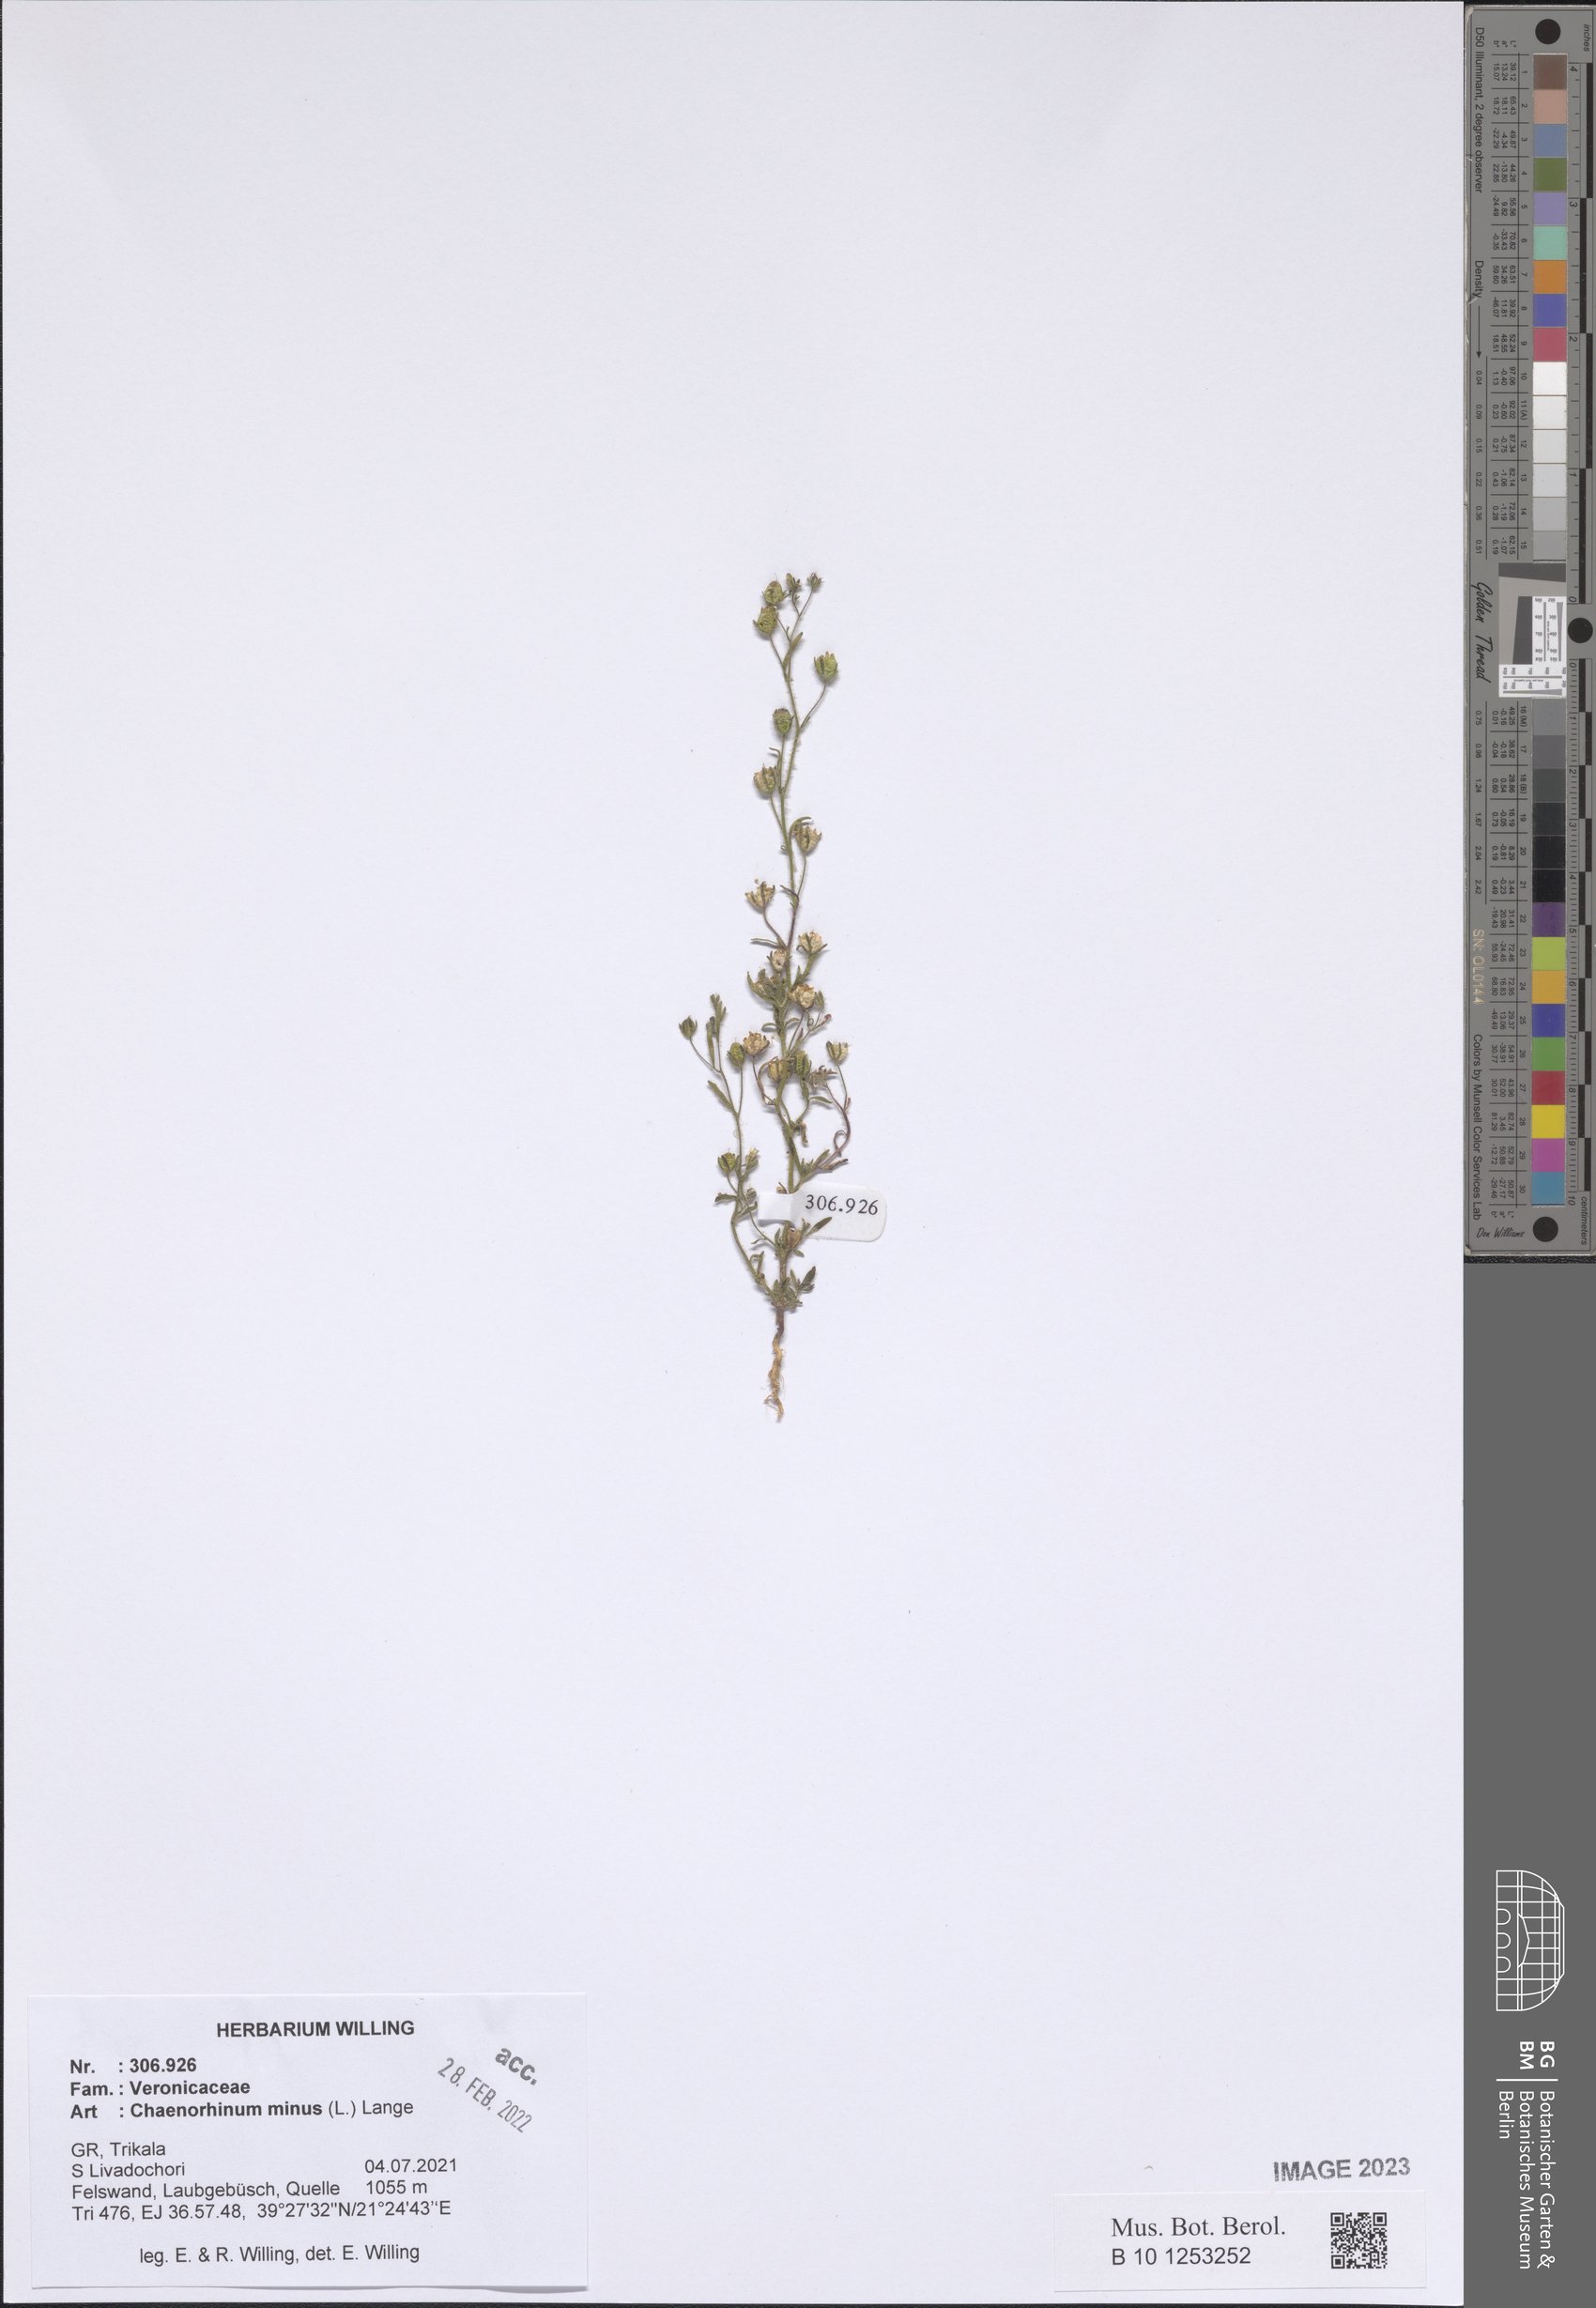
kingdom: Plantae
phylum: Tracheophyta
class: Magnoliopsida
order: Lamiales
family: Plantaginaceae
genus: Chaenorhinum
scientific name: Chaenorhinum minus
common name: Dwarf snapdragon
